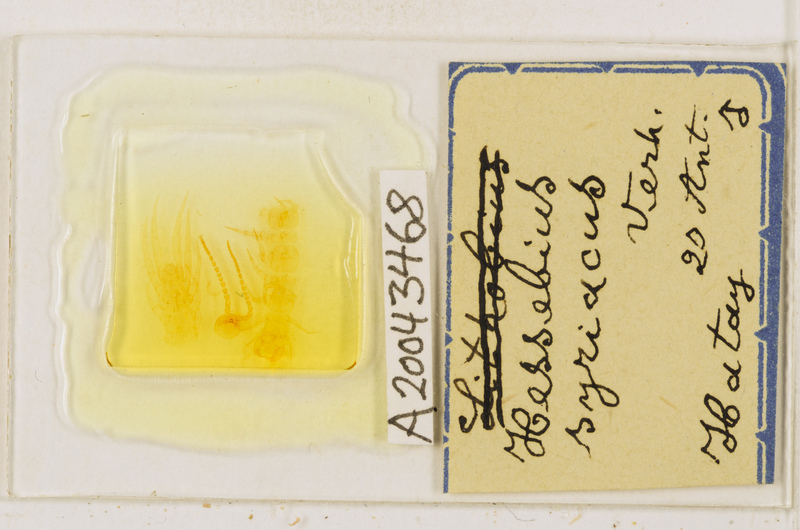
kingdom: Animalia
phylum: Arthropoda
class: Chilopoda
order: Lithobiomorpha
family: Lithobiidae
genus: Hessebius
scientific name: Hessebius
